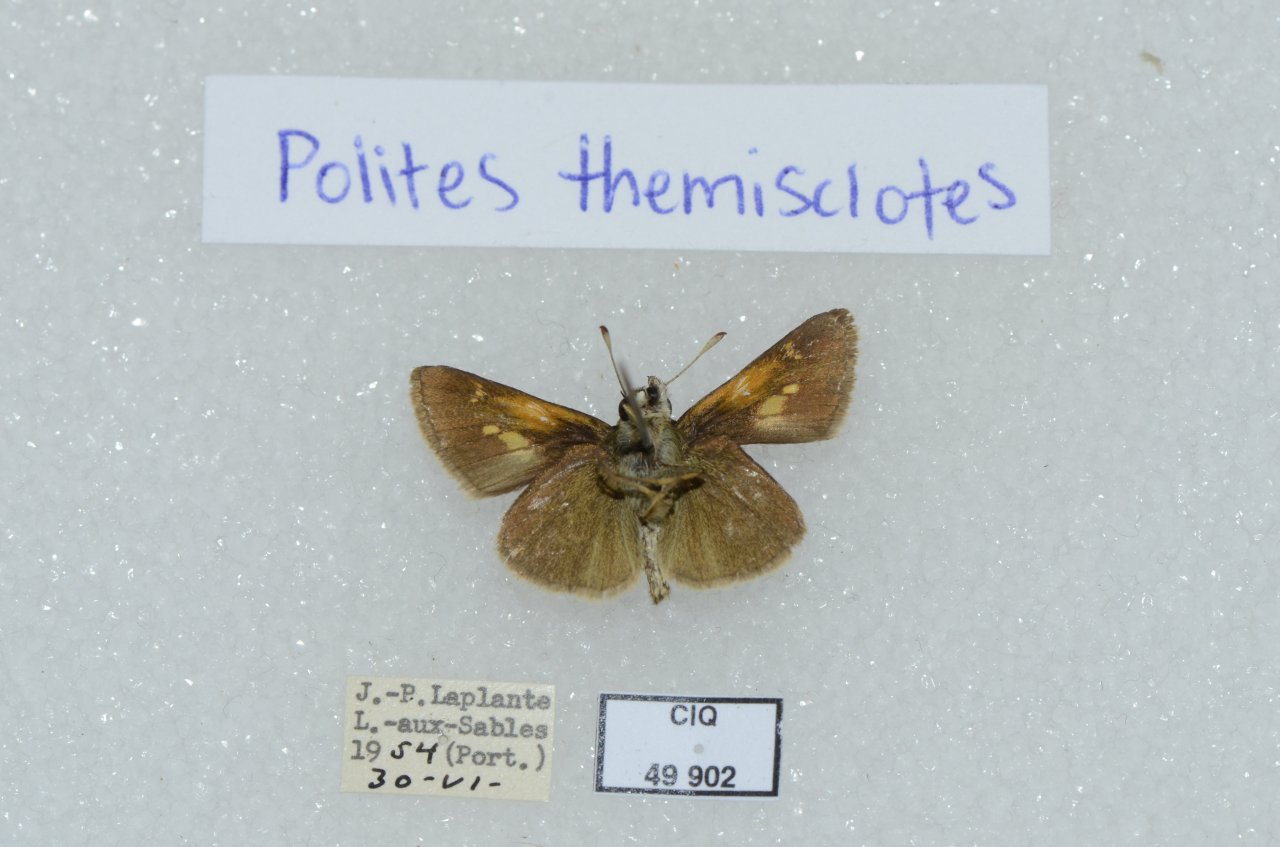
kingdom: Animalia
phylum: Arthropoda
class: Insecta
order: Lepidoptera
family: Hesperiidae
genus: Polites
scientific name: Polites themistocles
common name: Tawny-edged Skipper
